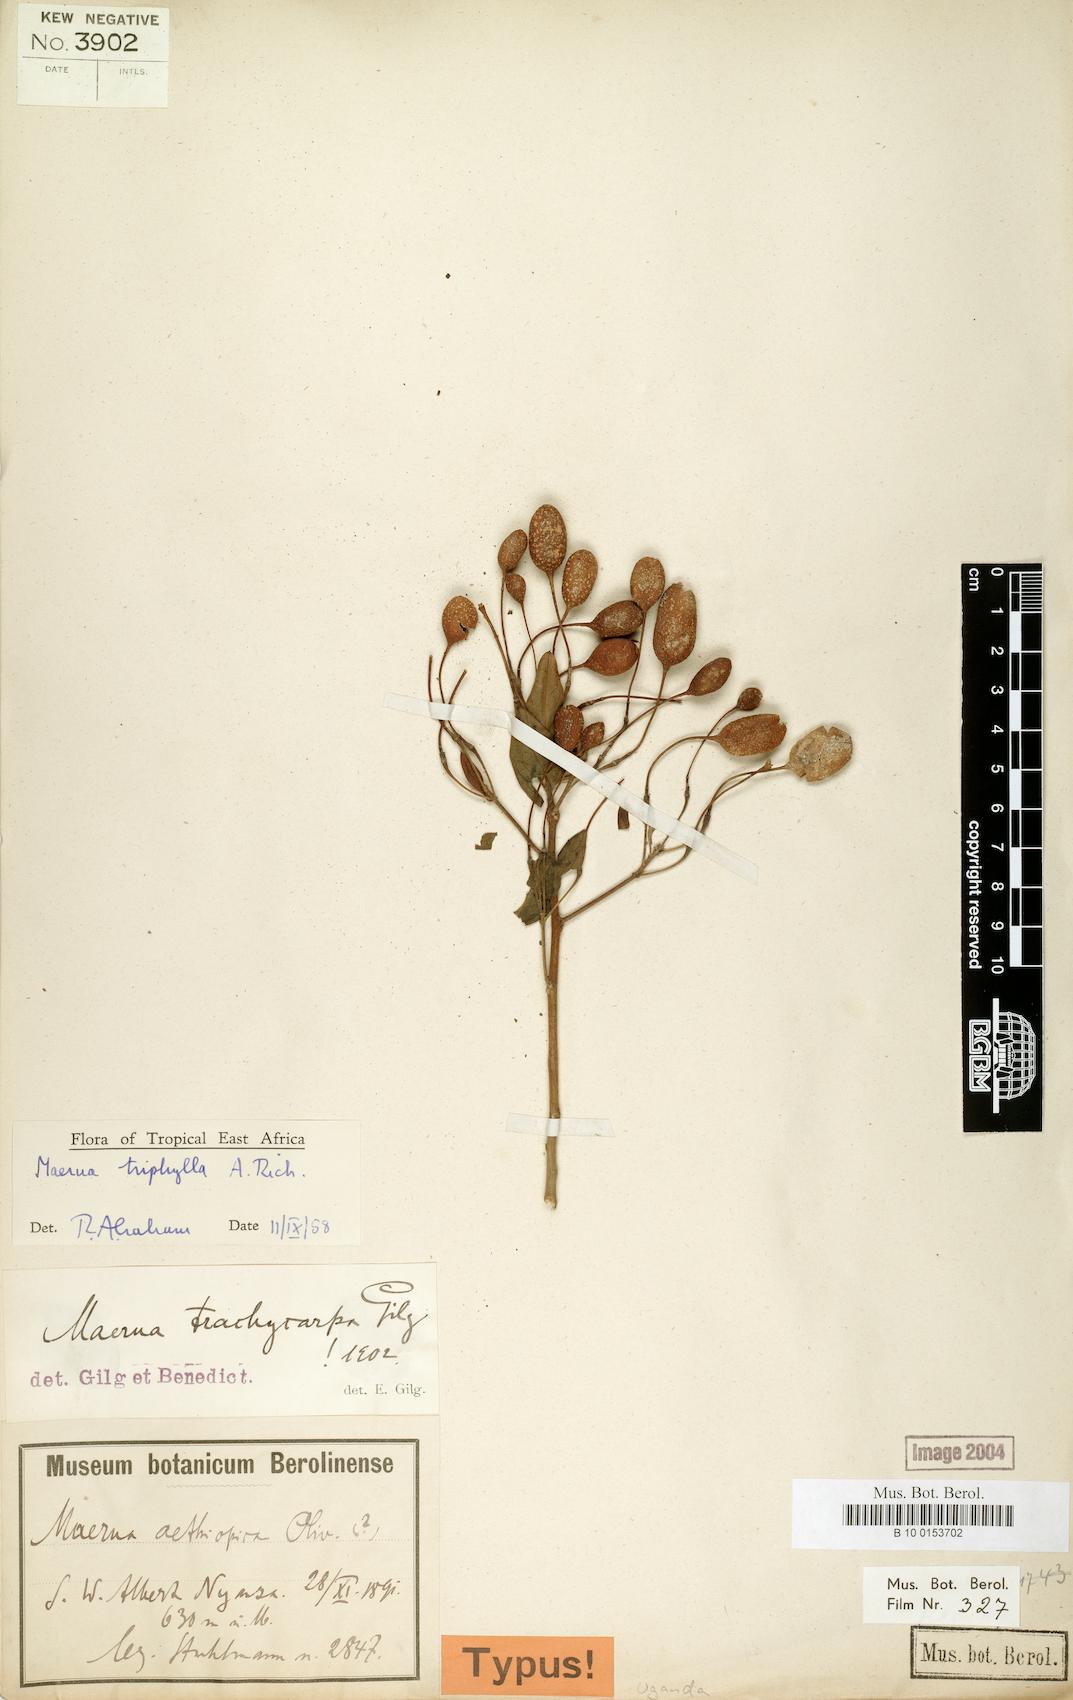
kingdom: Plantae
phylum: Tracheophyta
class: Magnoliopsida
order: Brassicales
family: Capparaceae
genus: Maerua
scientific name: Maerua triphylla
